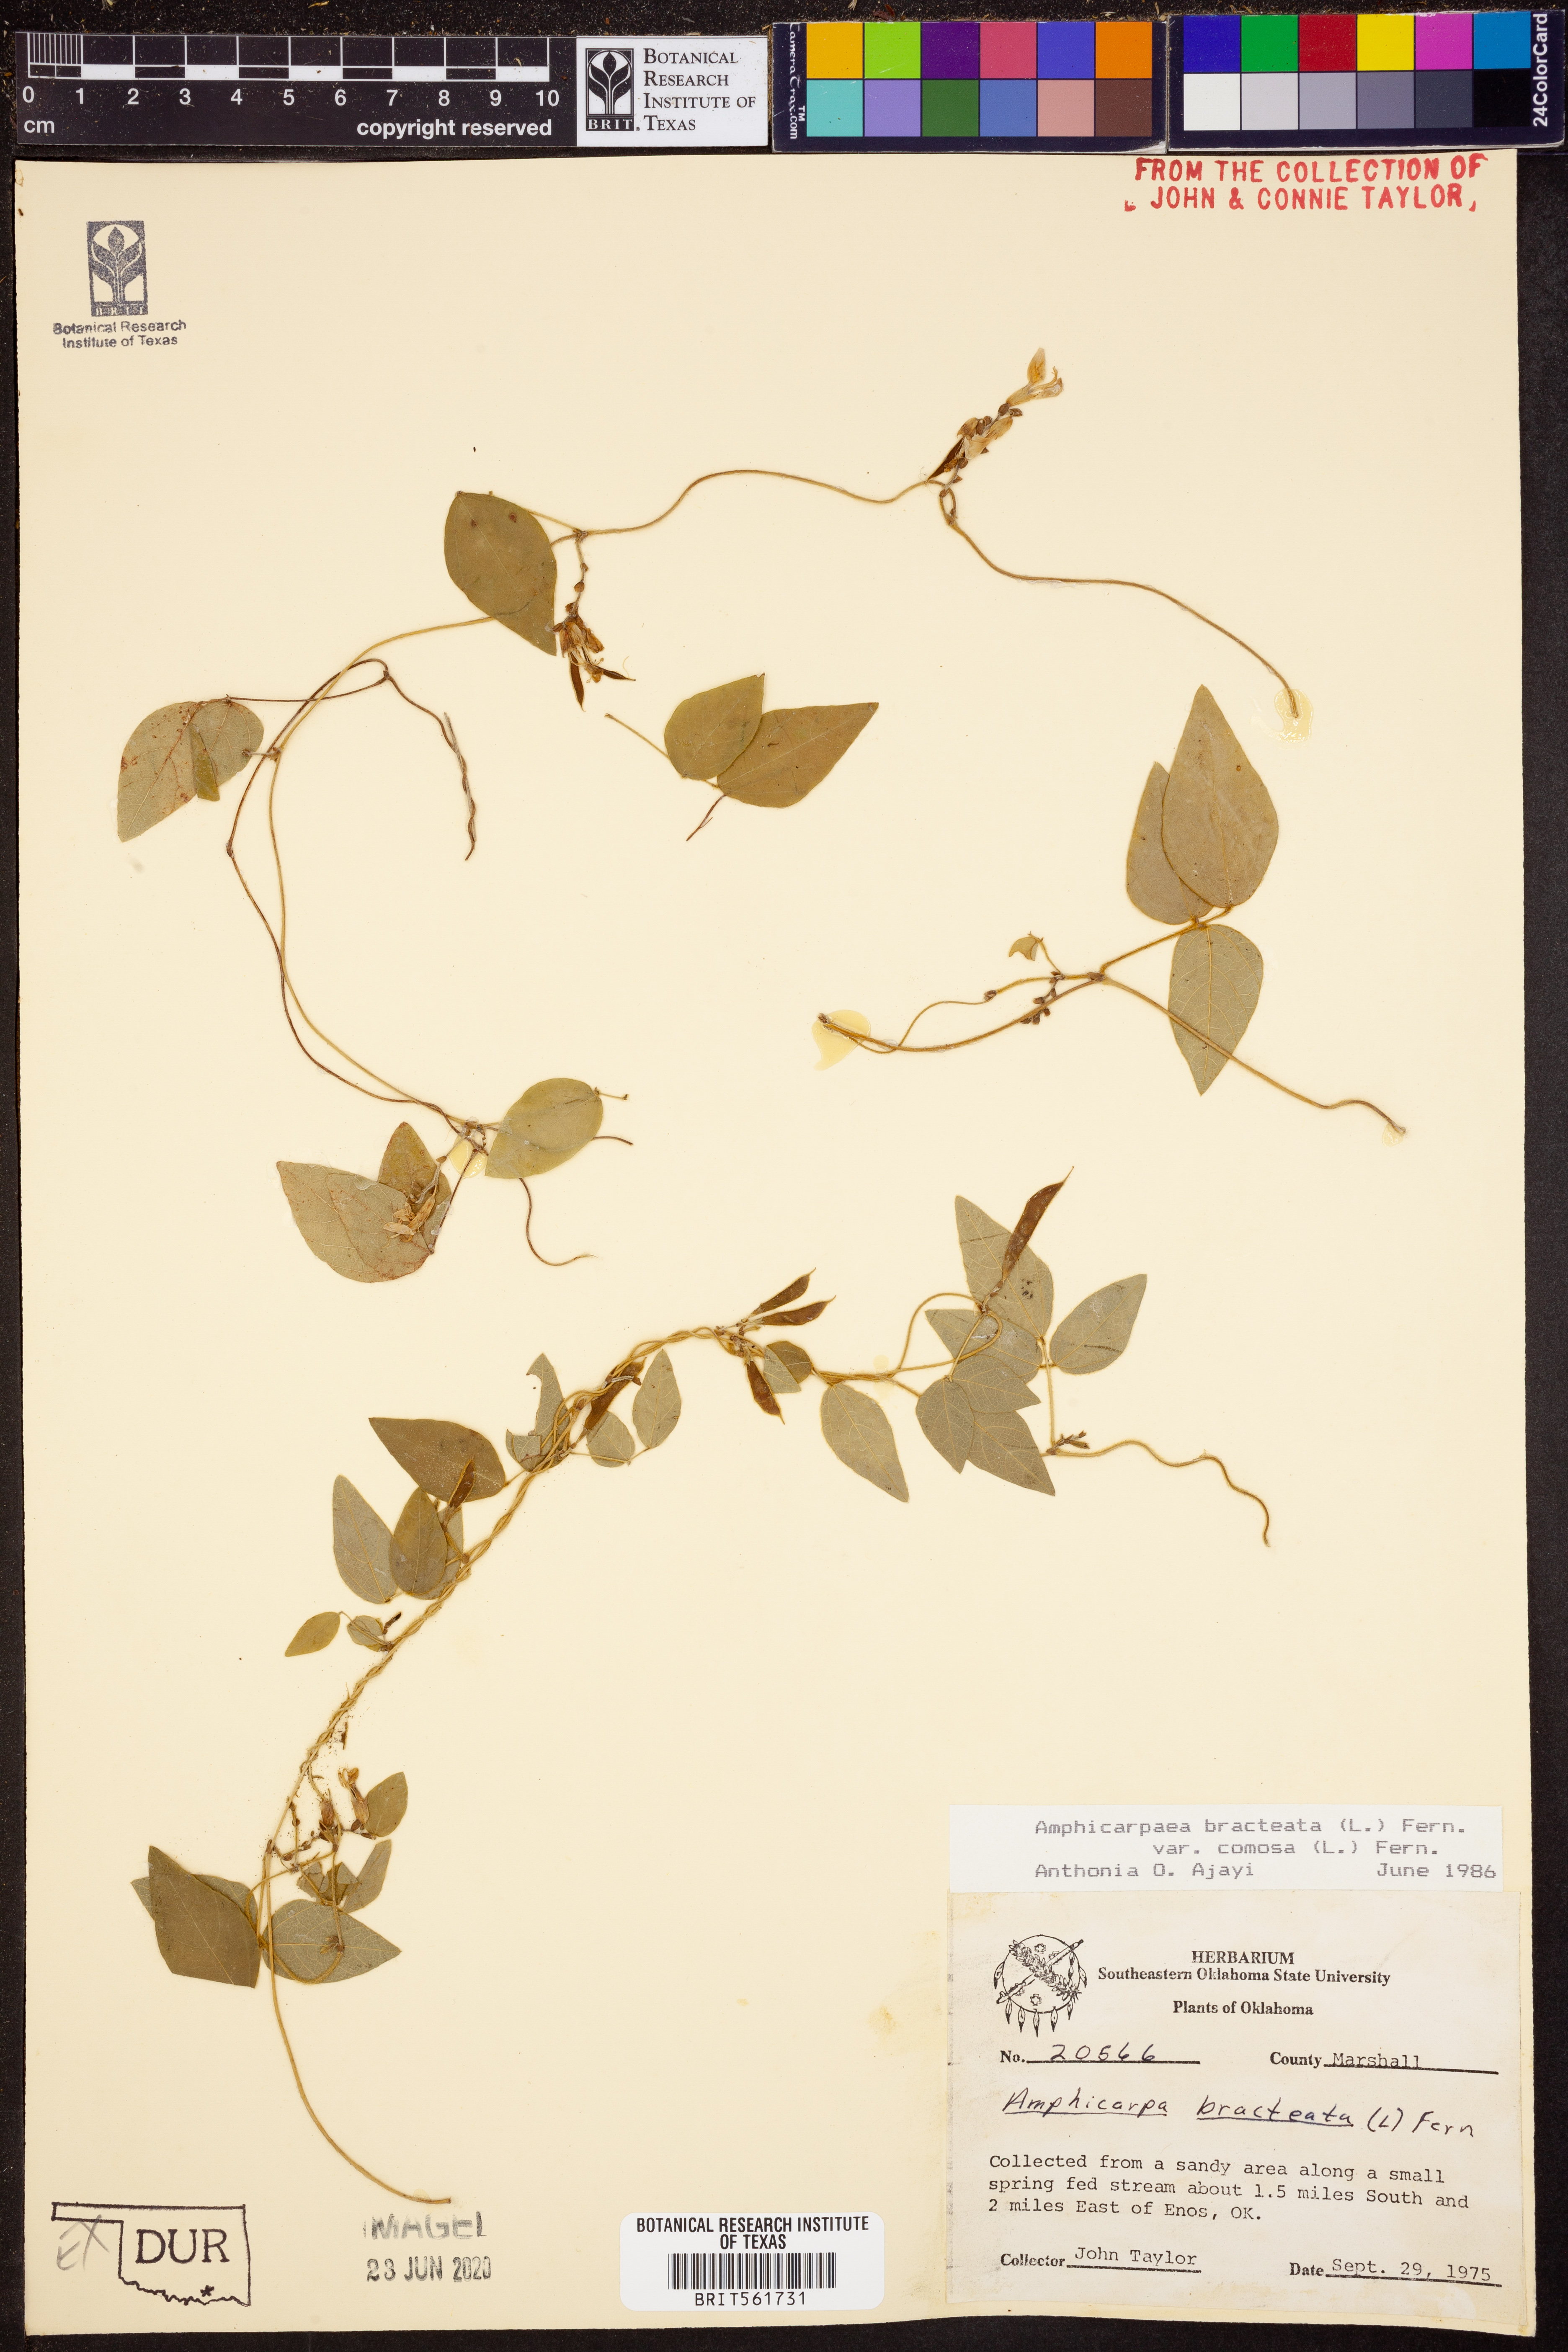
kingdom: Plantae
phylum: Tracheophyta
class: Magnoliopsida
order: Fabales
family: Fabaceae
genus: Amphicarpaea
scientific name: Amphicarpaea bracteata
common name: American hog peanut
